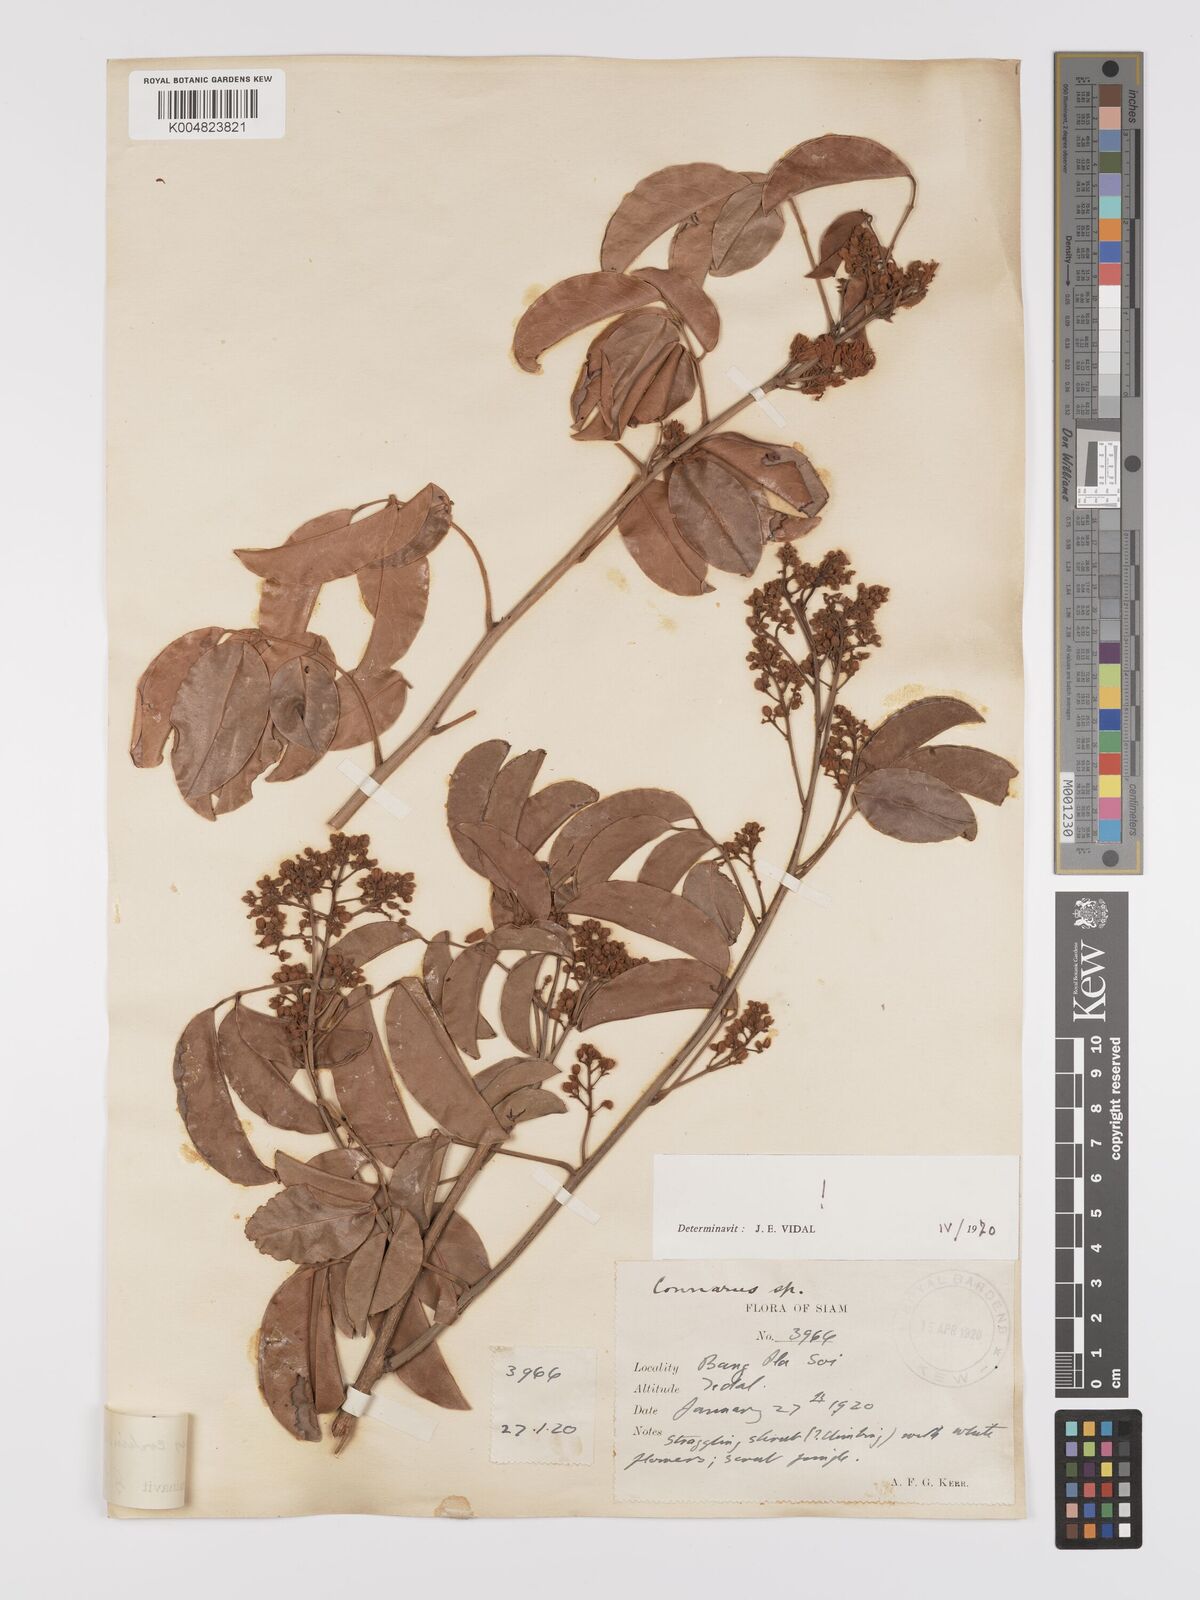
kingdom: Plantae
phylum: Tracheophyta
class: Magnoliopsida
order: Oxalidales
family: Connaraceae
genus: Connarus
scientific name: Connarus cochinchinensis
